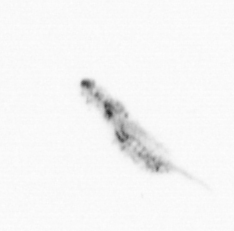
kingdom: Animalia
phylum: Arthropoda
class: Copepoda
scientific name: Copepoda
